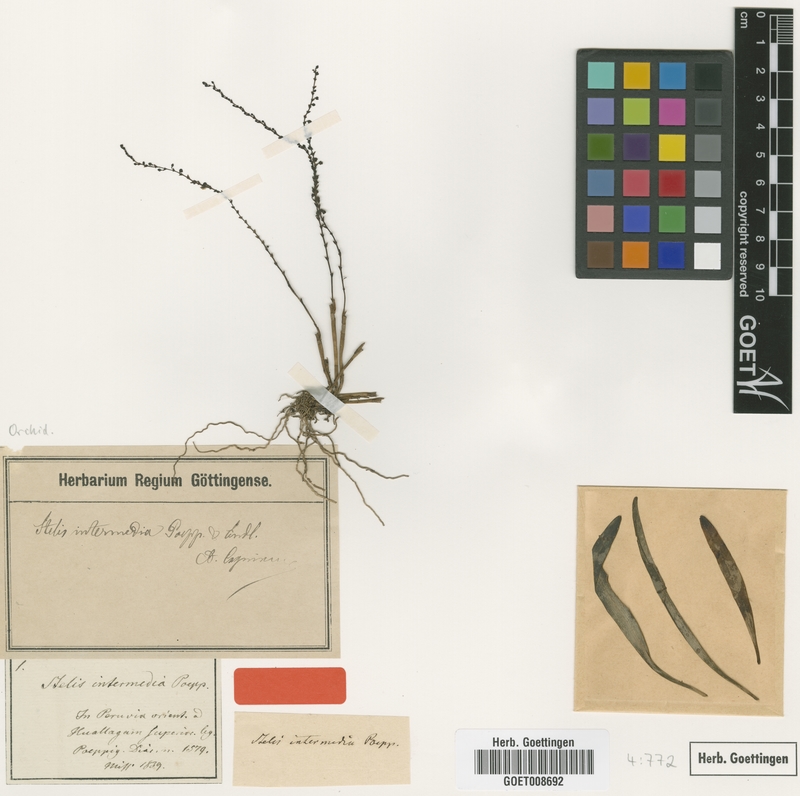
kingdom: Plantae
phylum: Tracheophyta
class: Liliopsida
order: Asparagales
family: Orchidaceae
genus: Stelis
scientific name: Stelis intermedia
